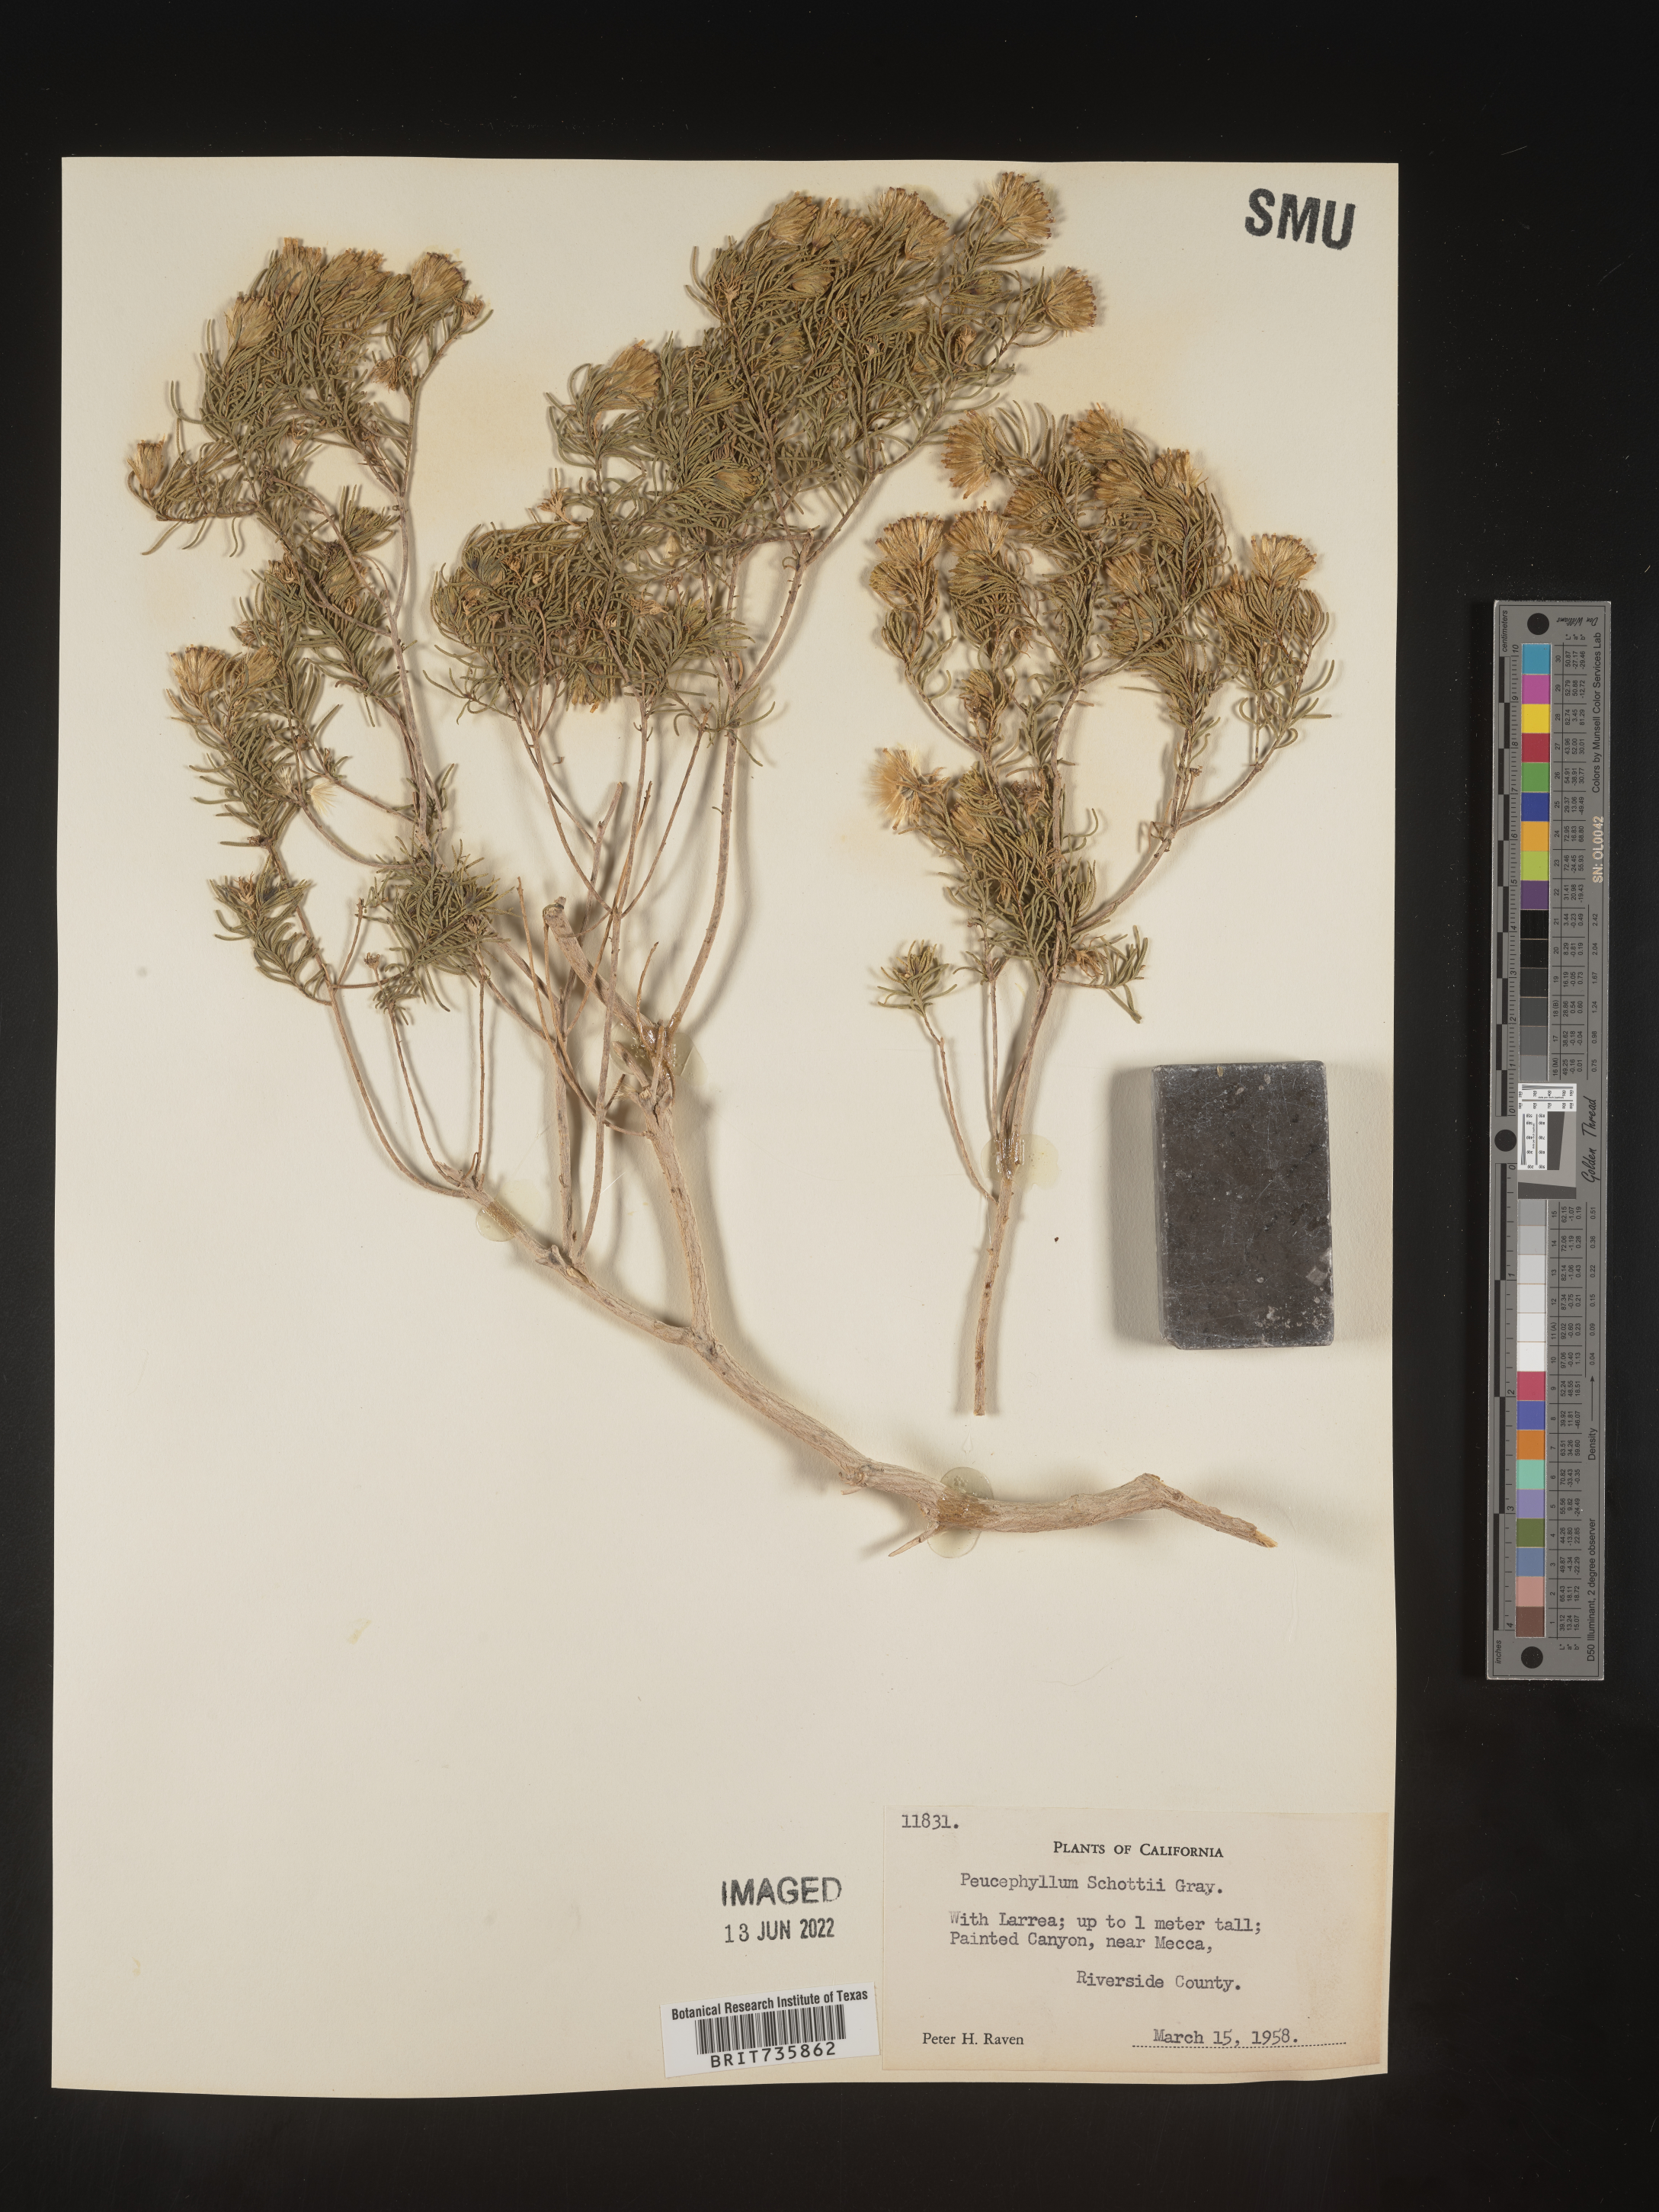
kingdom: Plantae
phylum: Tracheophyta
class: Magnoliopsida
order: Asterales
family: Asteraceae
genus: Peucephyllum
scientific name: Peucephyllum
